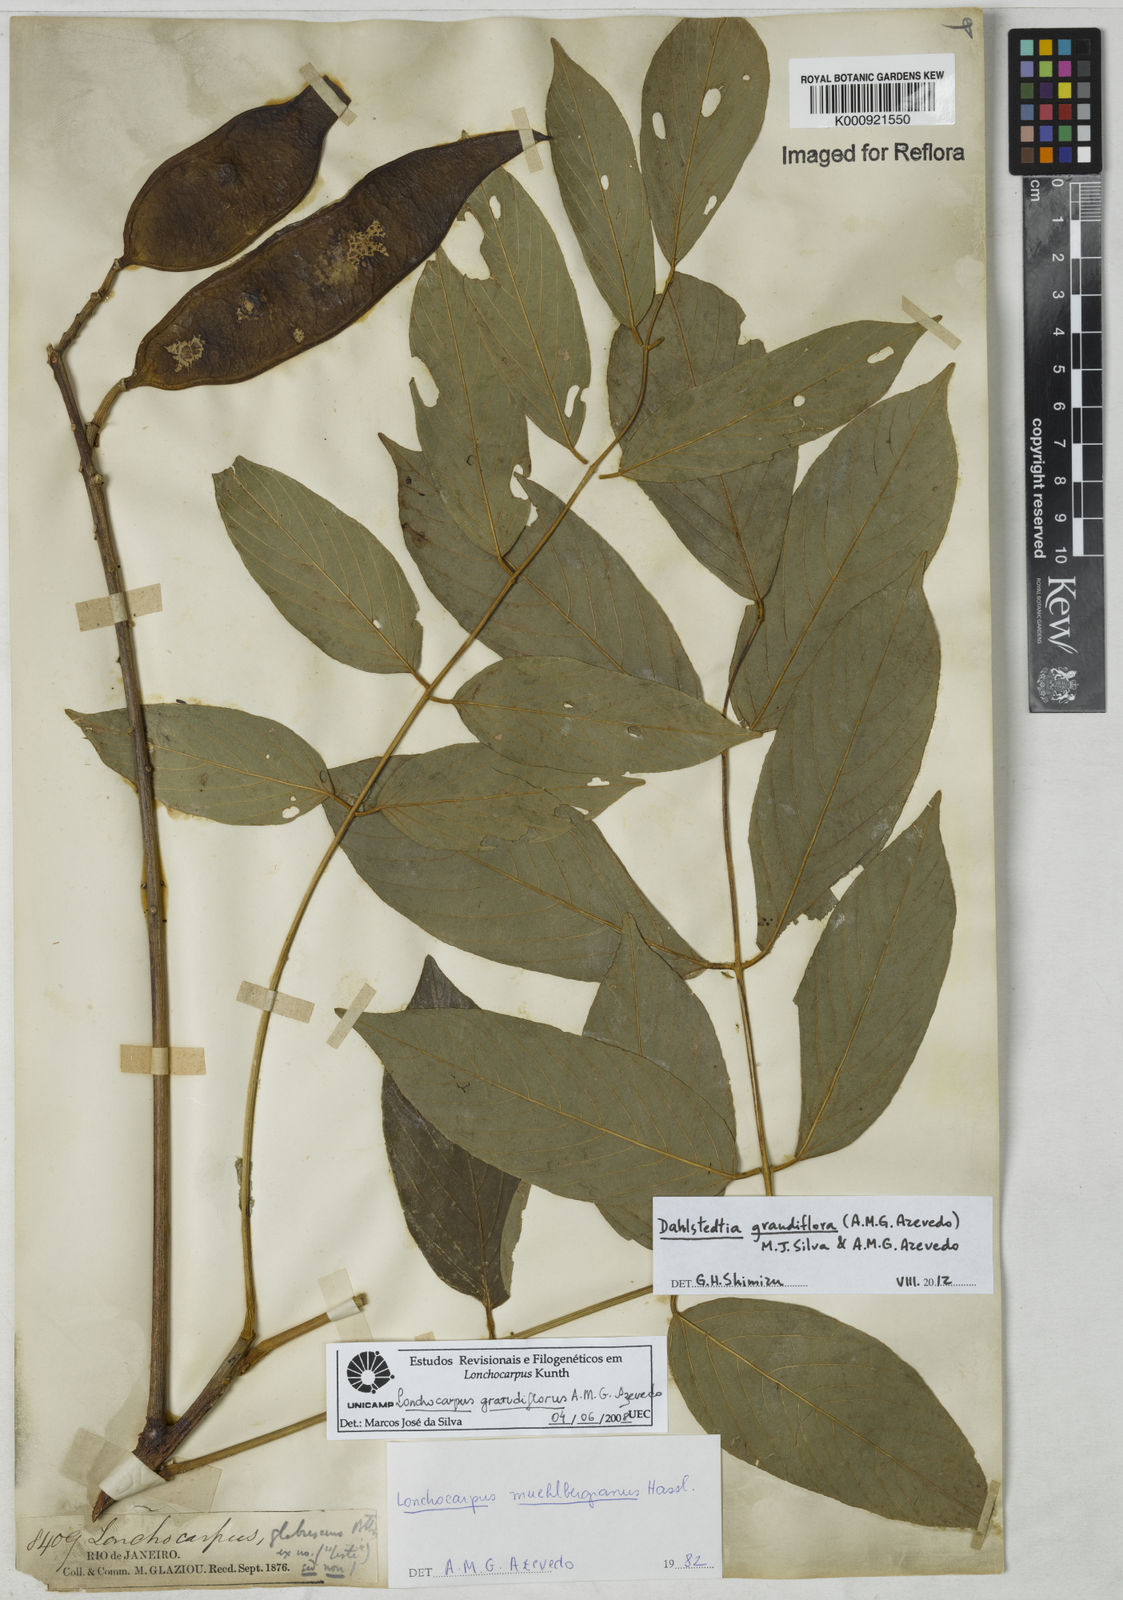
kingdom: Plantae
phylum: Tracheophyta
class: Magnoliopsida
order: Fabales
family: Fabaceae
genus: Dahlstedtia
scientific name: Dahlstedtia grandiflora
